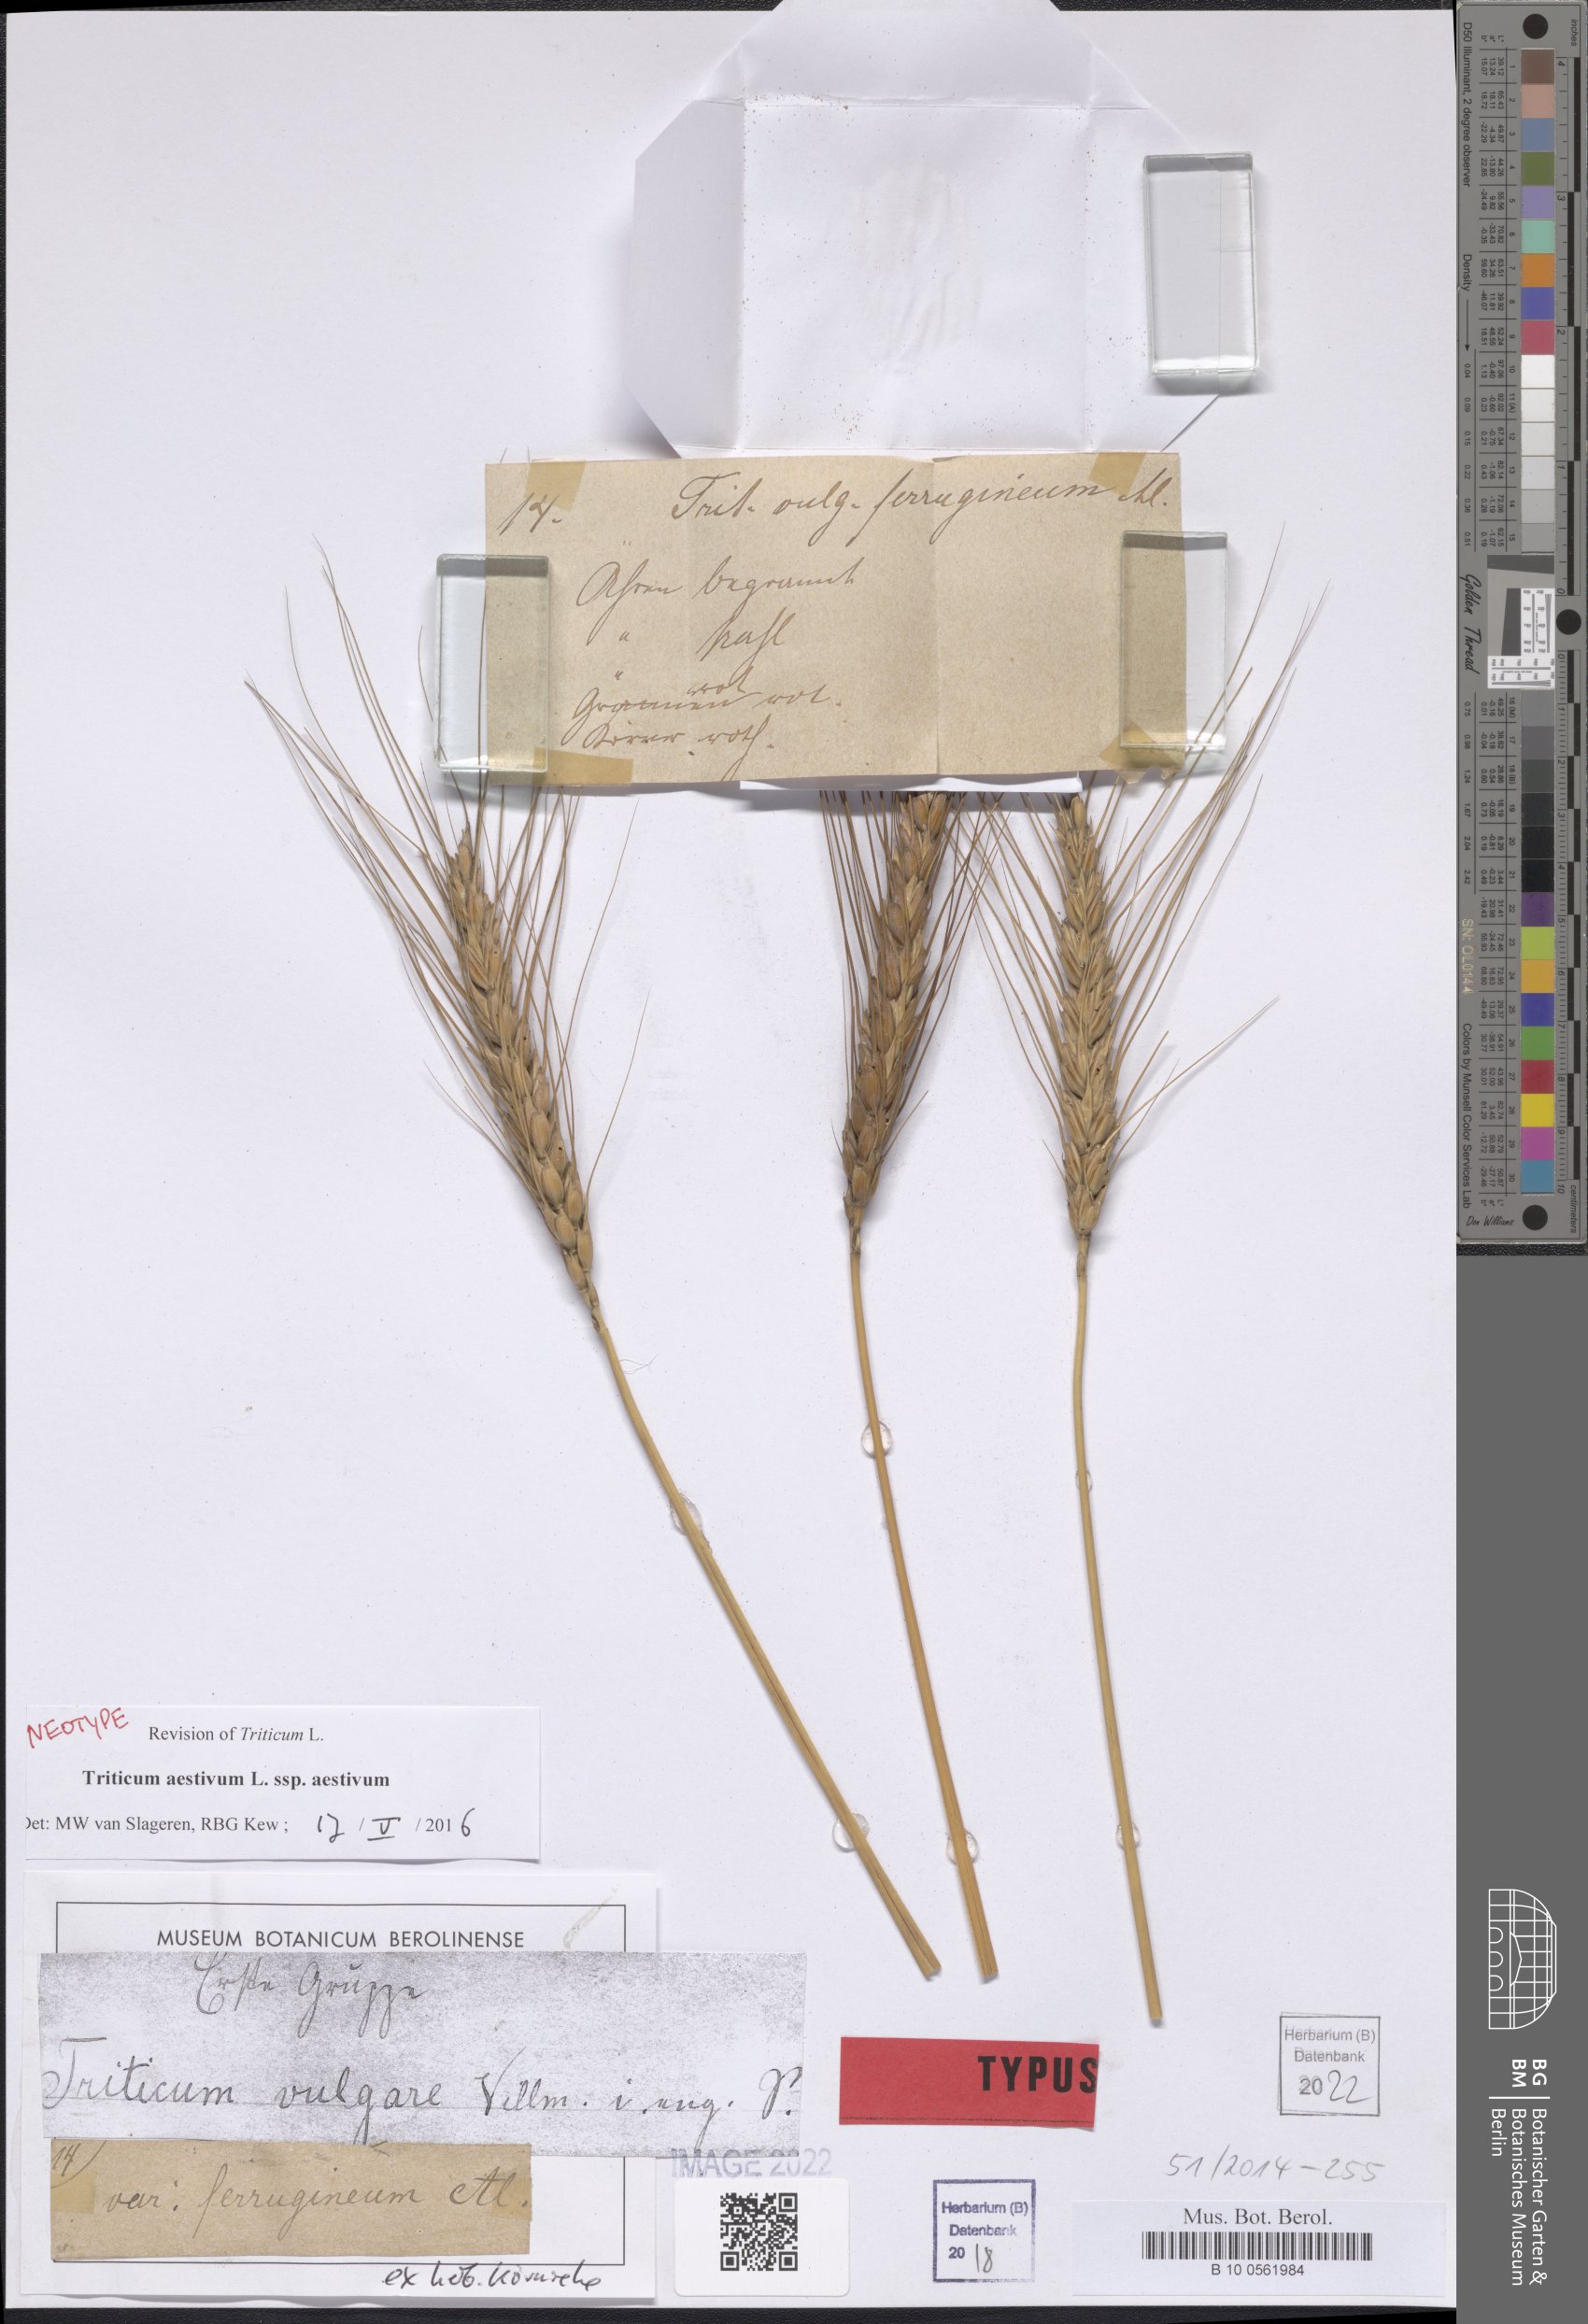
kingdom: Plantae
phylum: Tracheophyta
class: Liliopsida
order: Poales
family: Poaceae
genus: Triticum
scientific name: Triticum aestivum
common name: Common wheat
